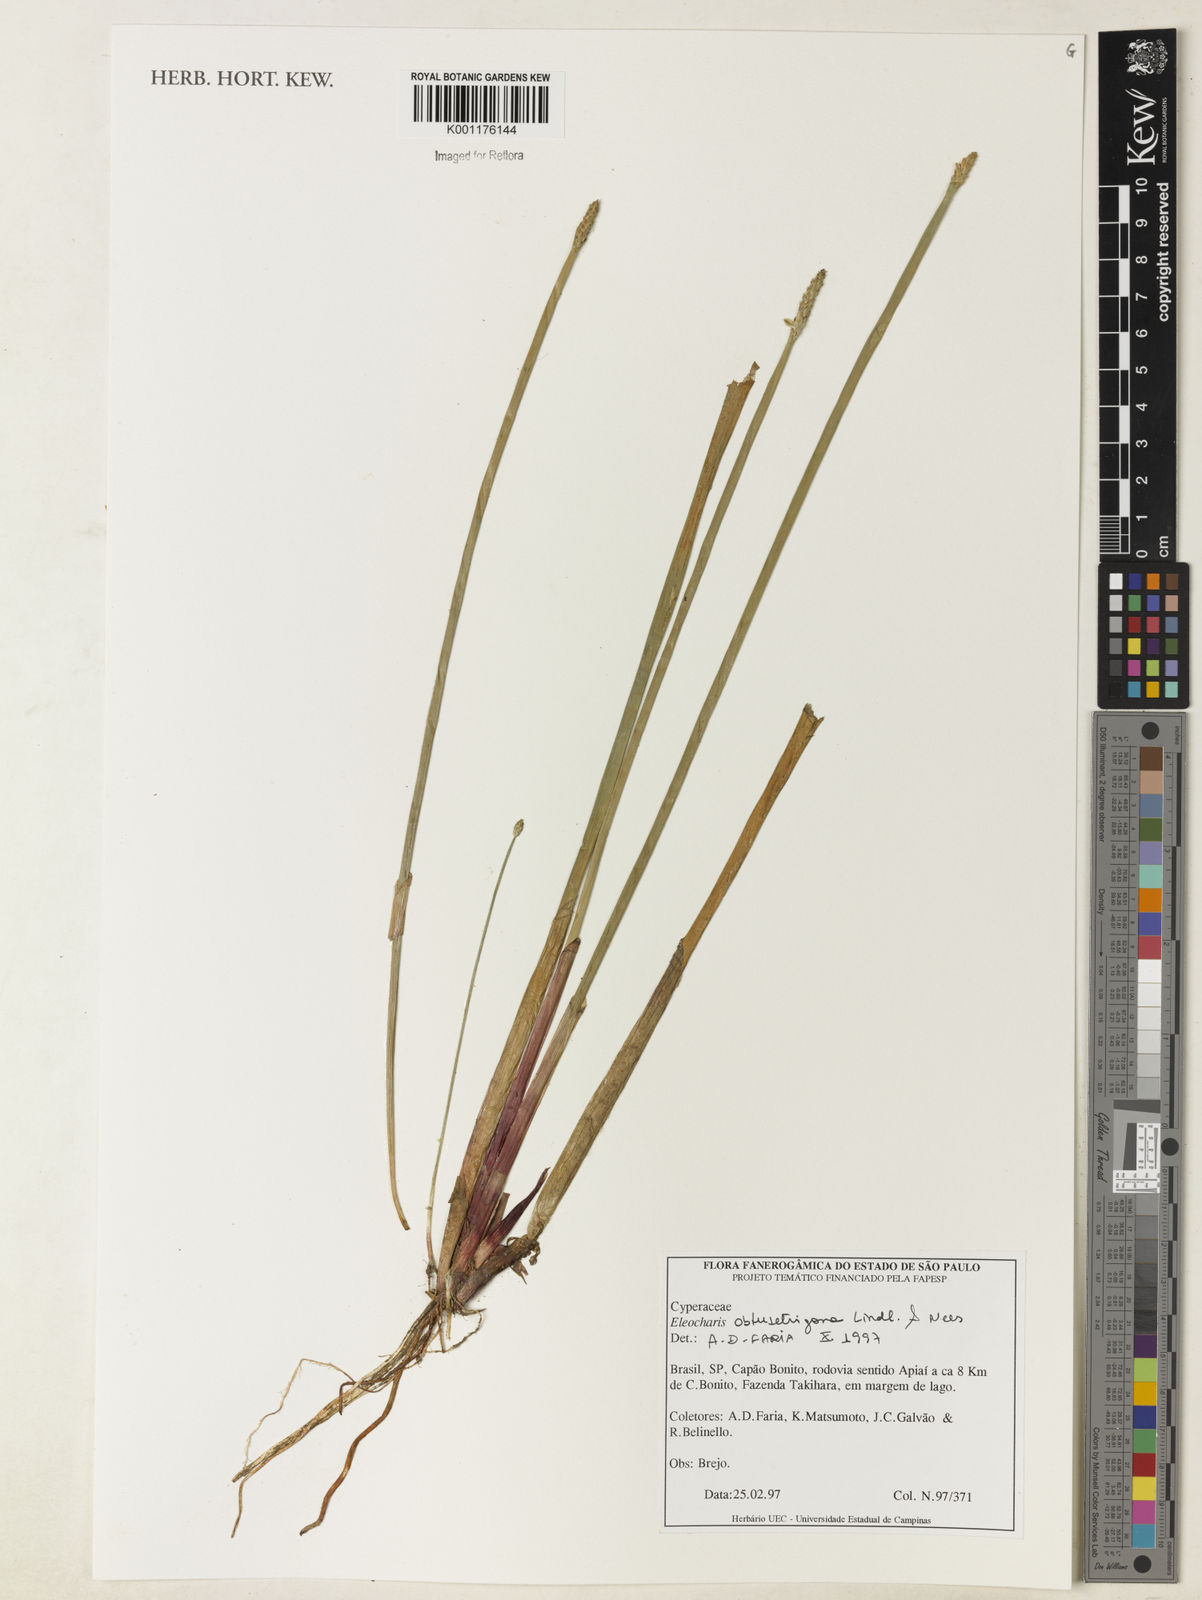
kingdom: Plantae
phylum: Tracheophyta
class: Liliopsida
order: Poales
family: Cyperaceae
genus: Eleocharis
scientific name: Eleocharis acutangula
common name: Acute spikerush
